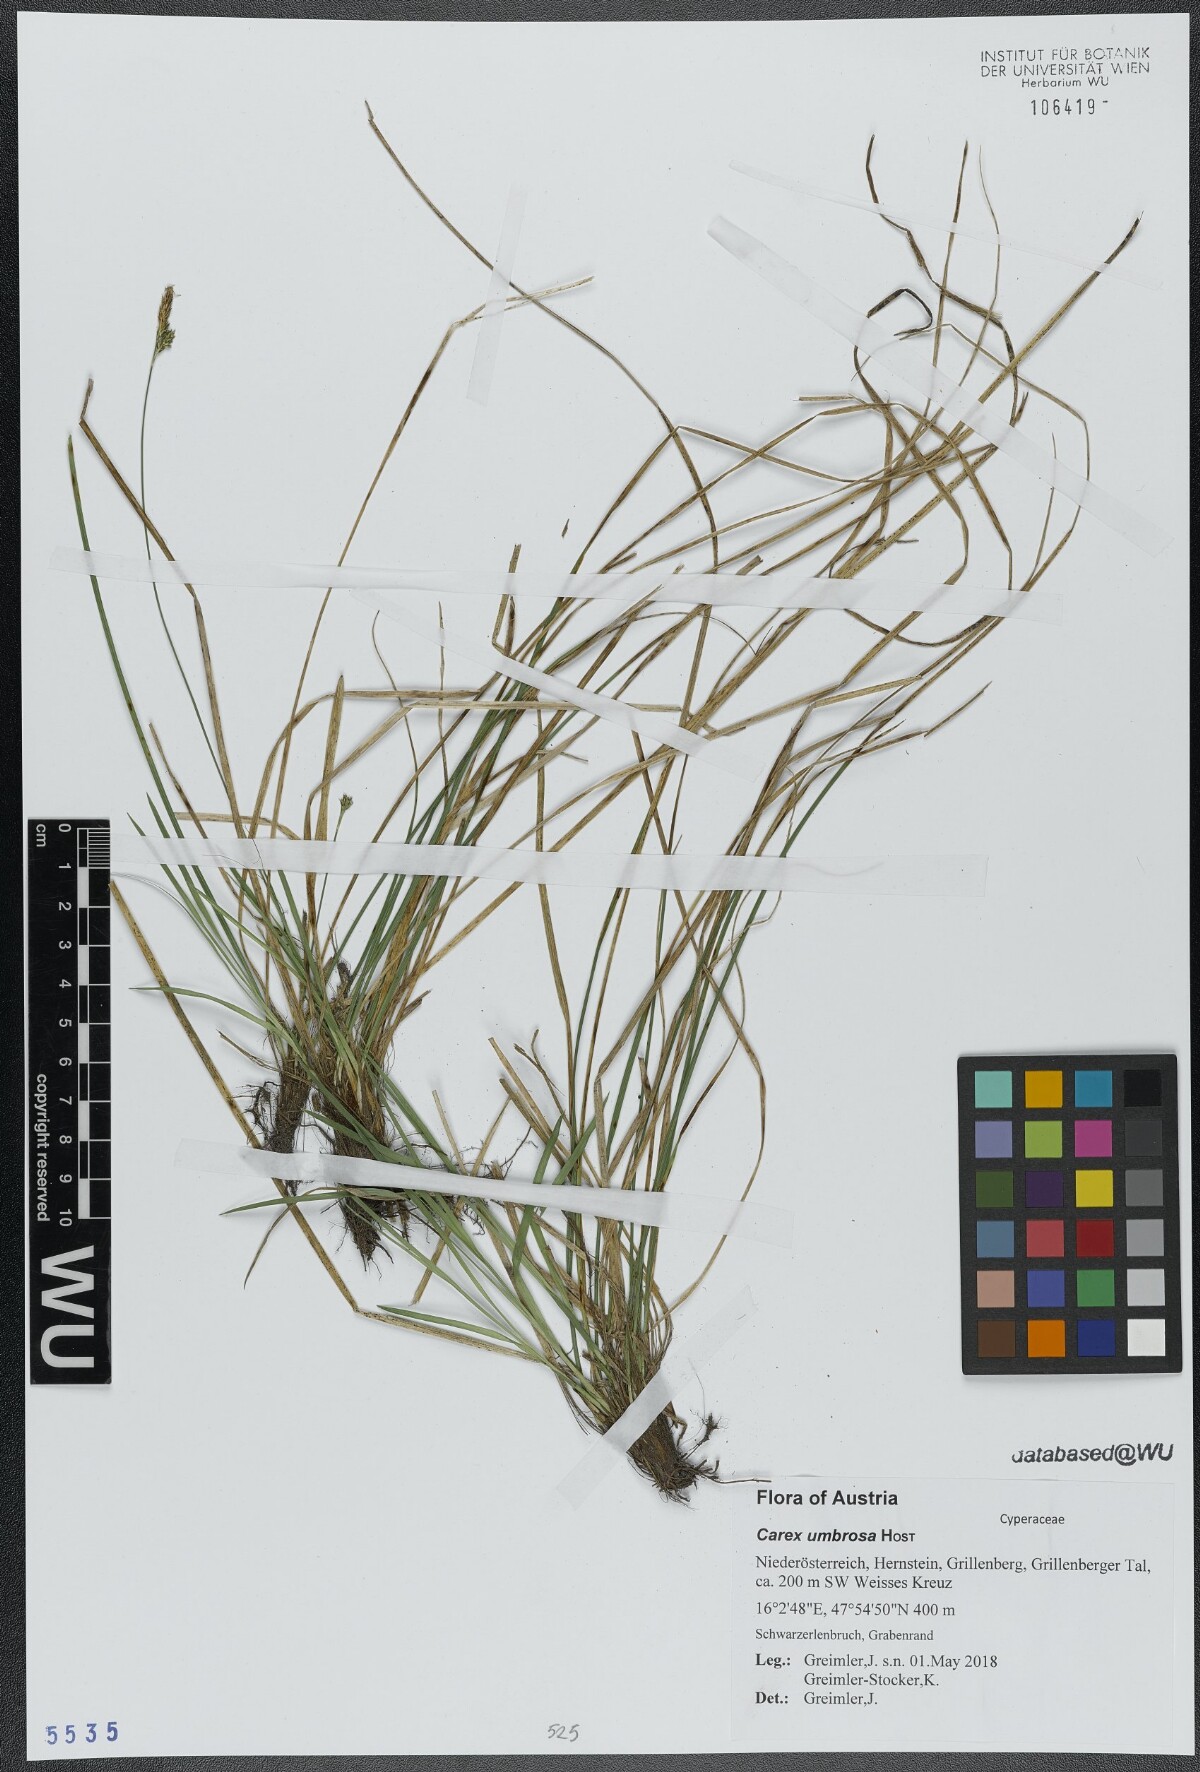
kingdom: Plantae
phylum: Tracheophyta
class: Liliopsida
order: Poales
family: Cyperaceae
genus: Carex
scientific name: Carex umbrosa
